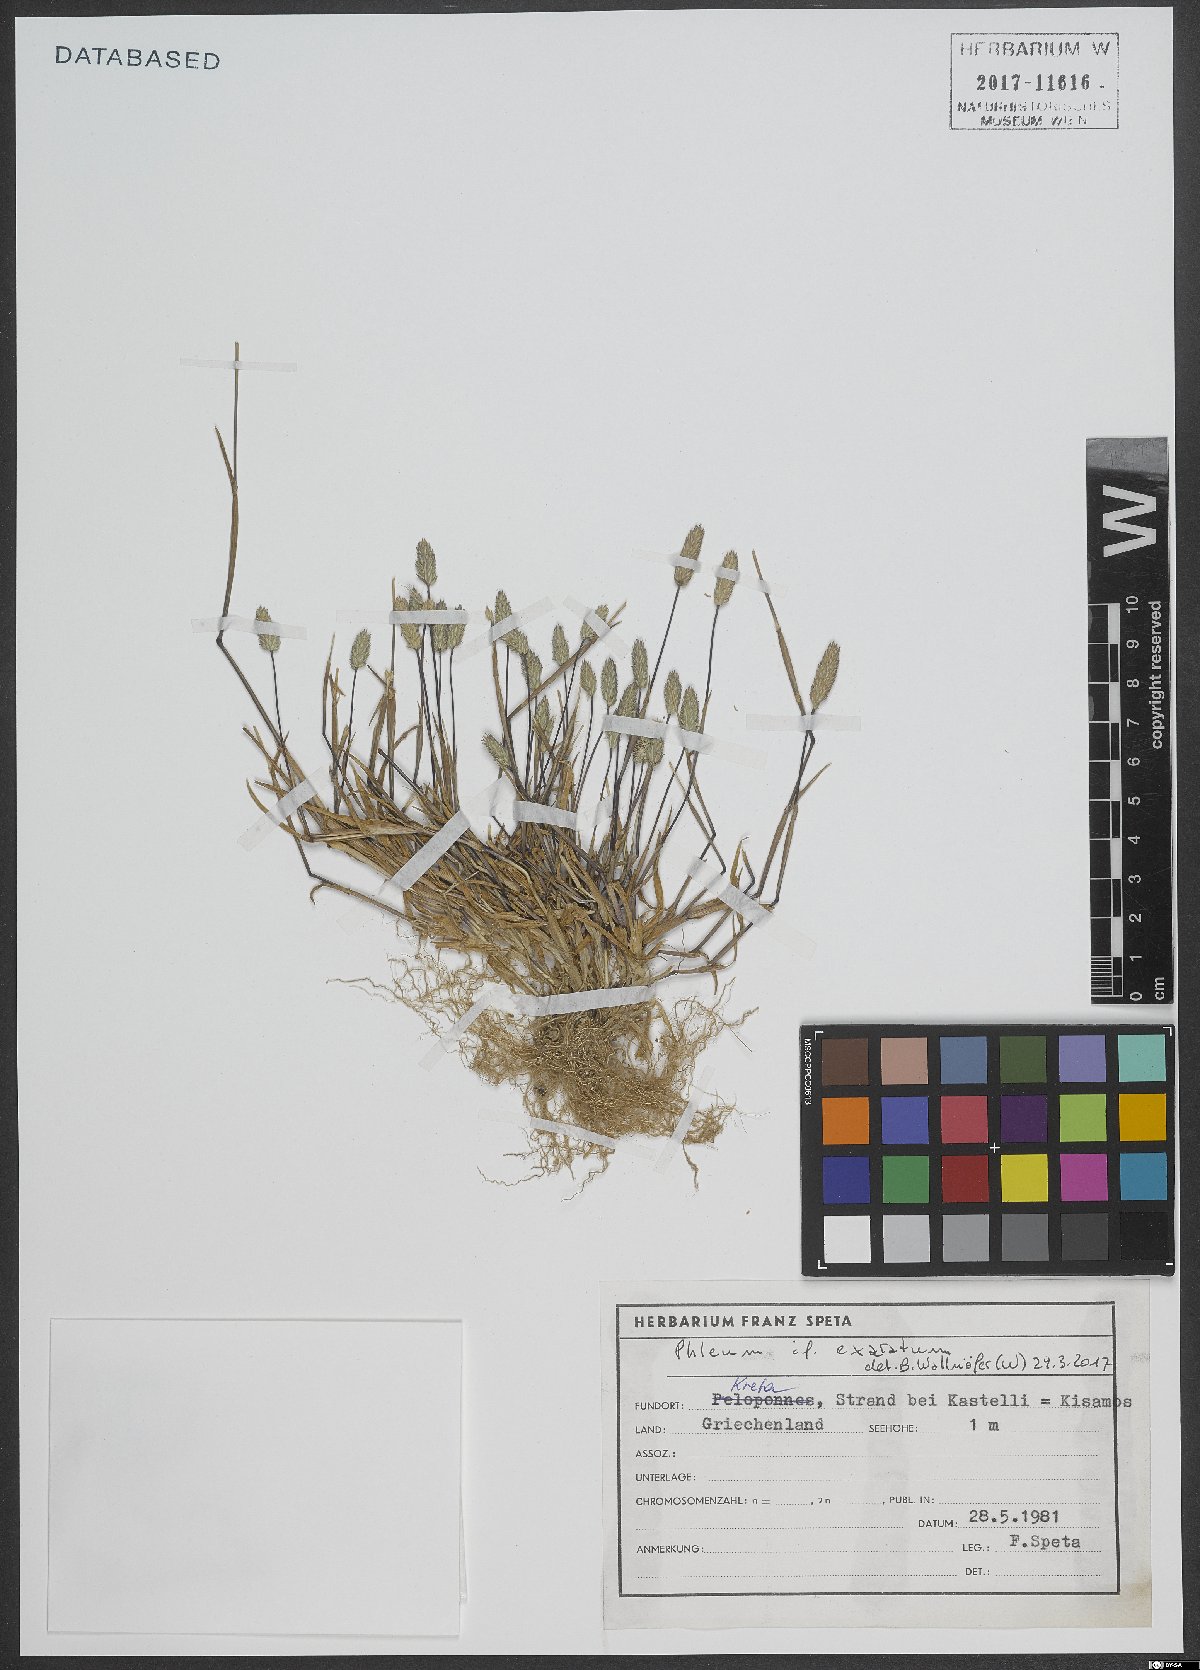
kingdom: Plantae
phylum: Tracheophyta
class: Liliopsida
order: Poales
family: Poaceae
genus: Phleum
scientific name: Phleum exaratum
